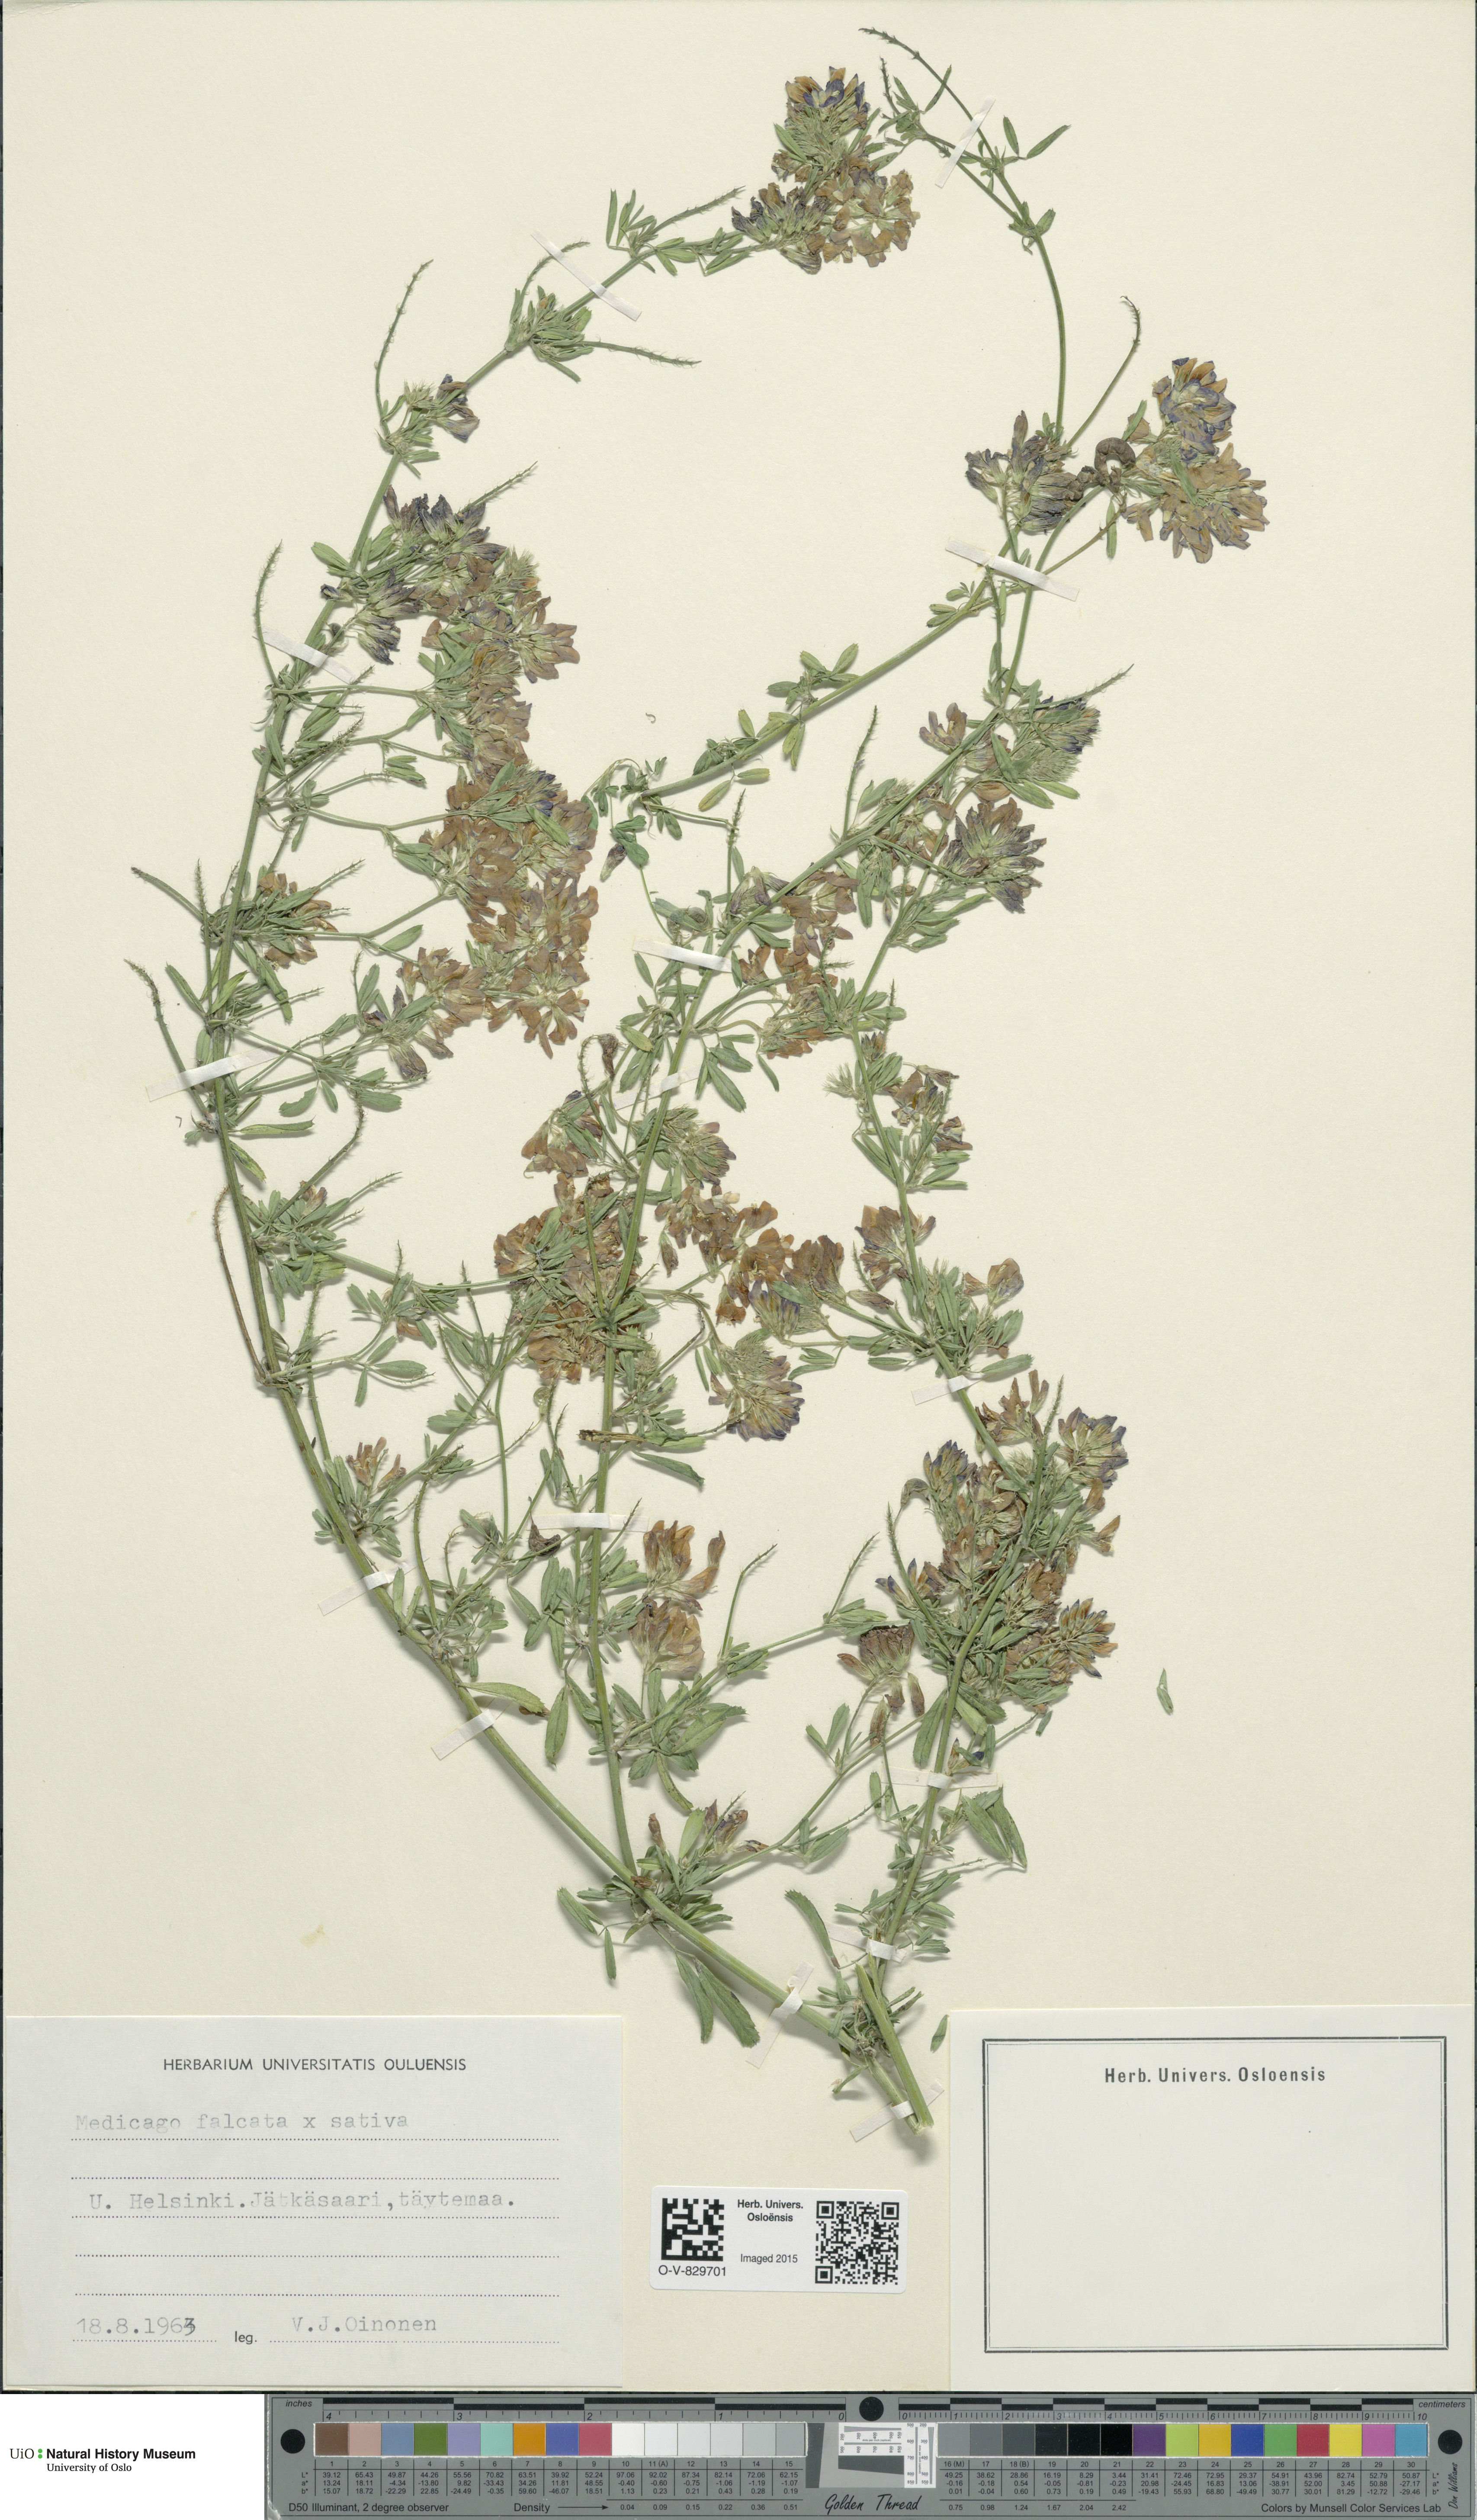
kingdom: Plantae
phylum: Tracheophyta
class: Magnoliopsida
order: Fabales
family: Fabaceae
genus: Medicago
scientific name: Medicago
